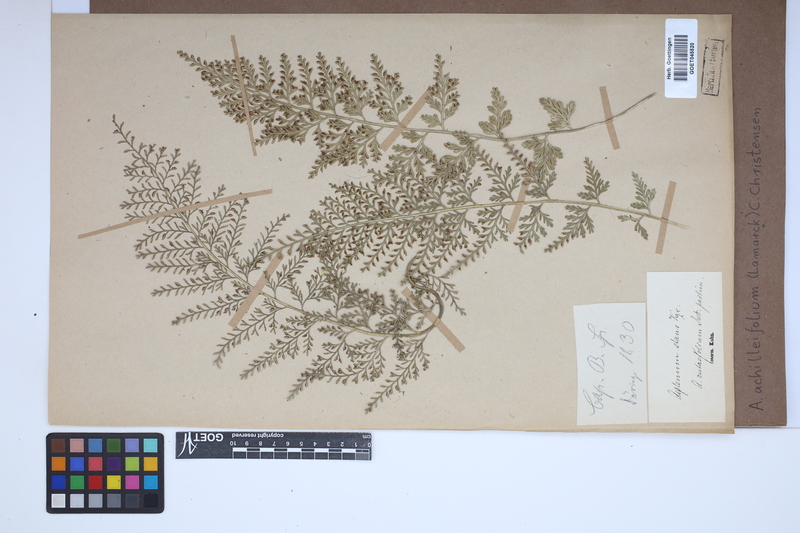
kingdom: Plantae
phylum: Tracheophyta
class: Polypodiopsida
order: Polypodiales
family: Aspleniaceae
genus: Asplenium
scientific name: Asplenium rutifolium
